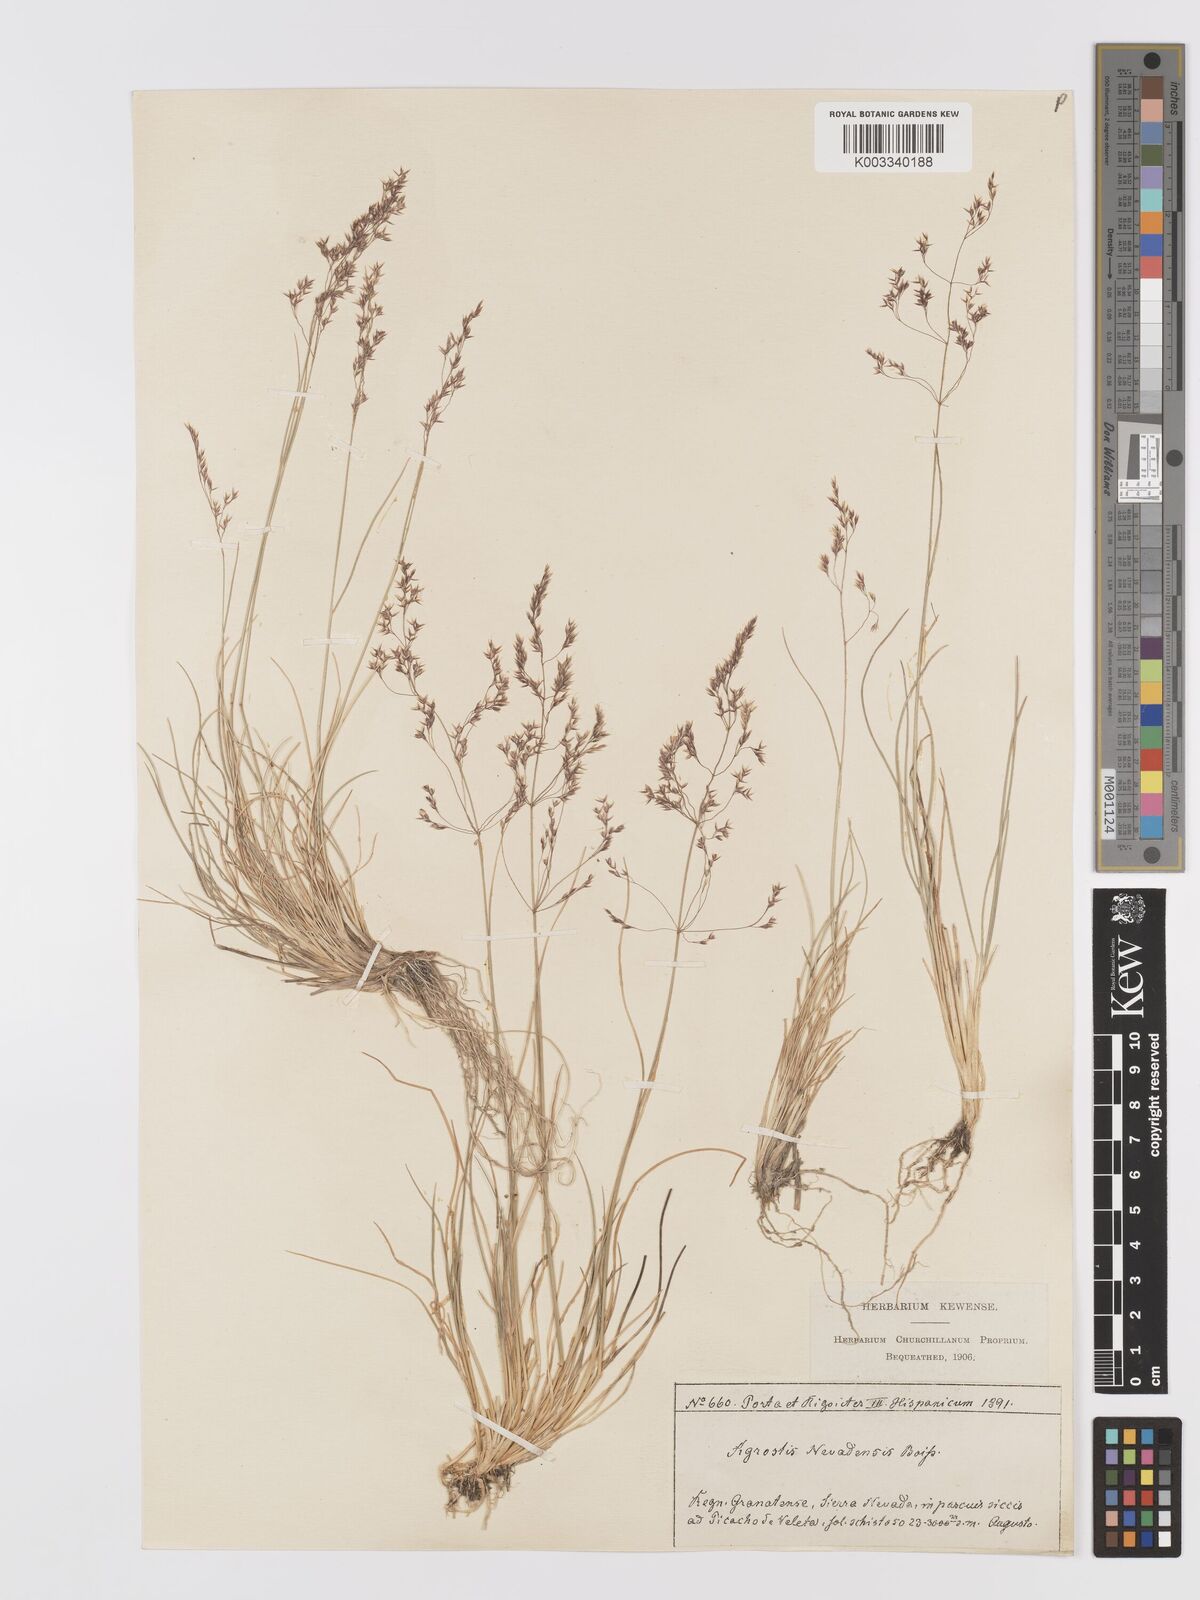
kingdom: Plantae
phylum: Tracheophyta
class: Liliopsida
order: Poales
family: Poaceae
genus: Agrostis
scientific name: Agrostis nevadensis
